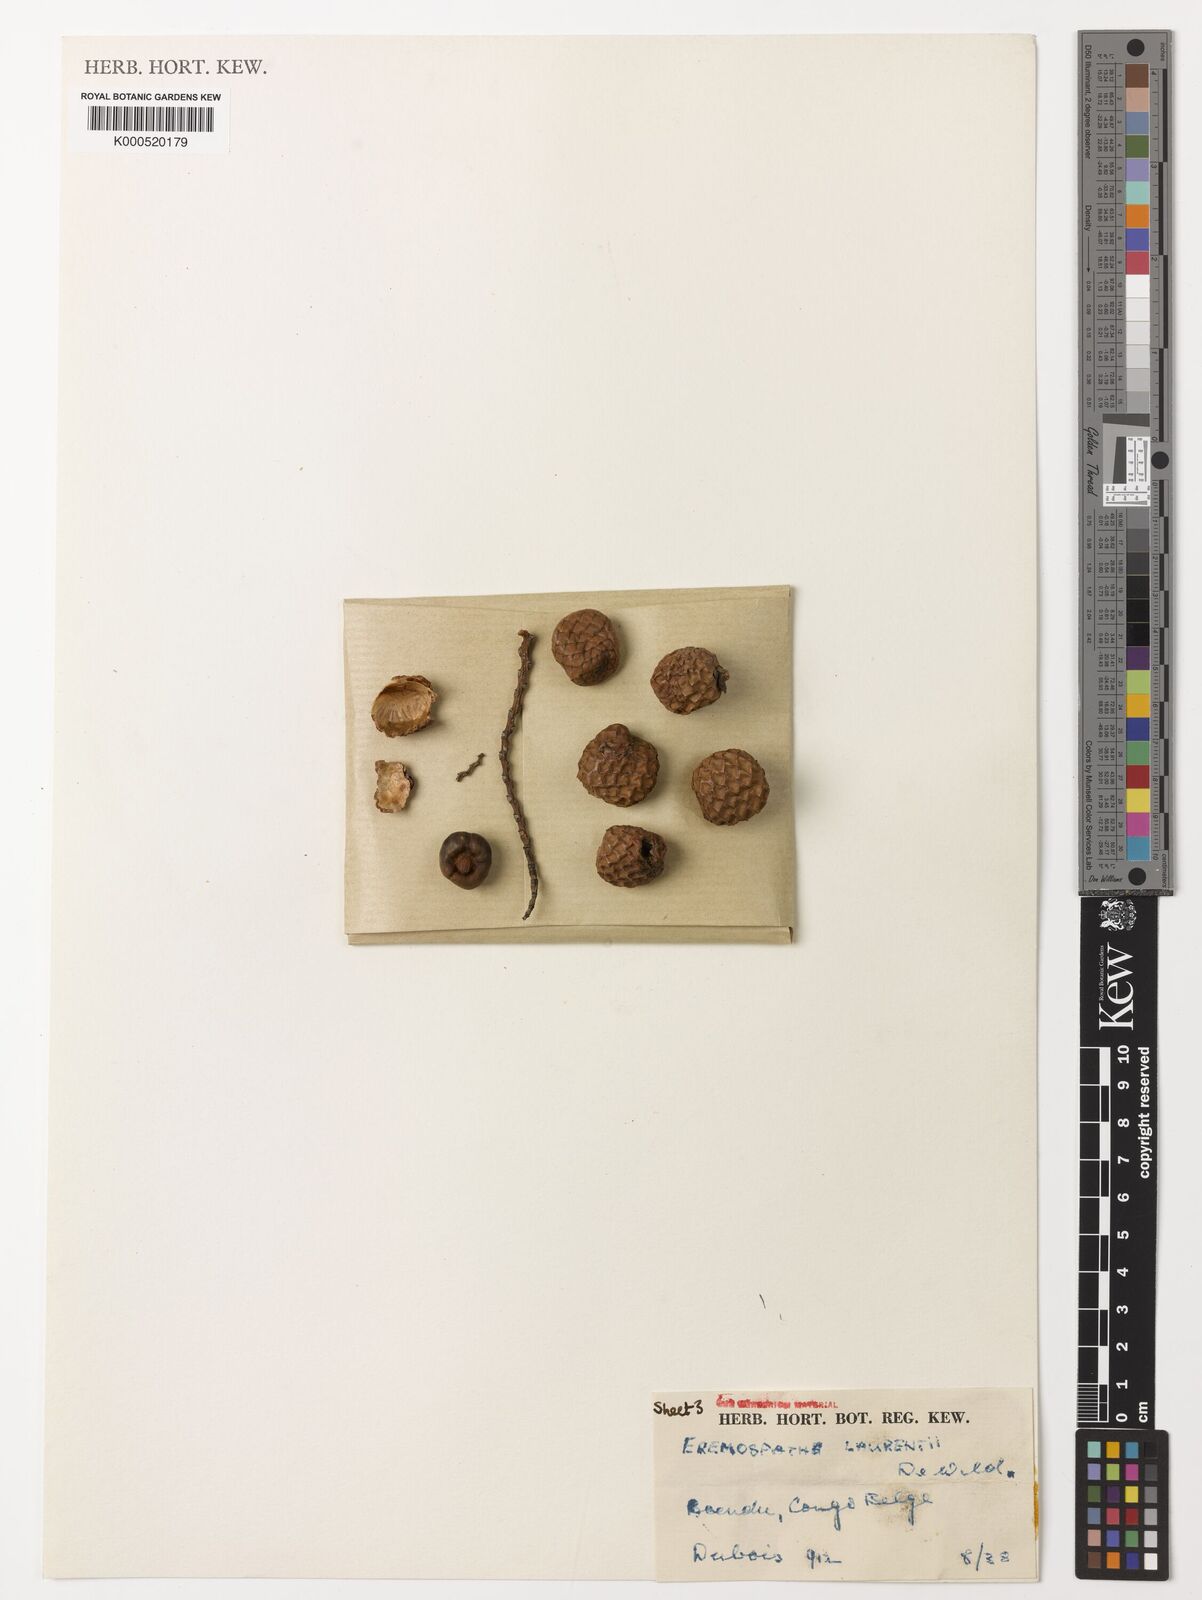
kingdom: Plantae
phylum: Tracheophyta
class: Liliopsida
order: Arecales
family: Arecaceae
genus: Eremospatha
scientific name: Eremospatha laurentii
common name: Rattan palm
